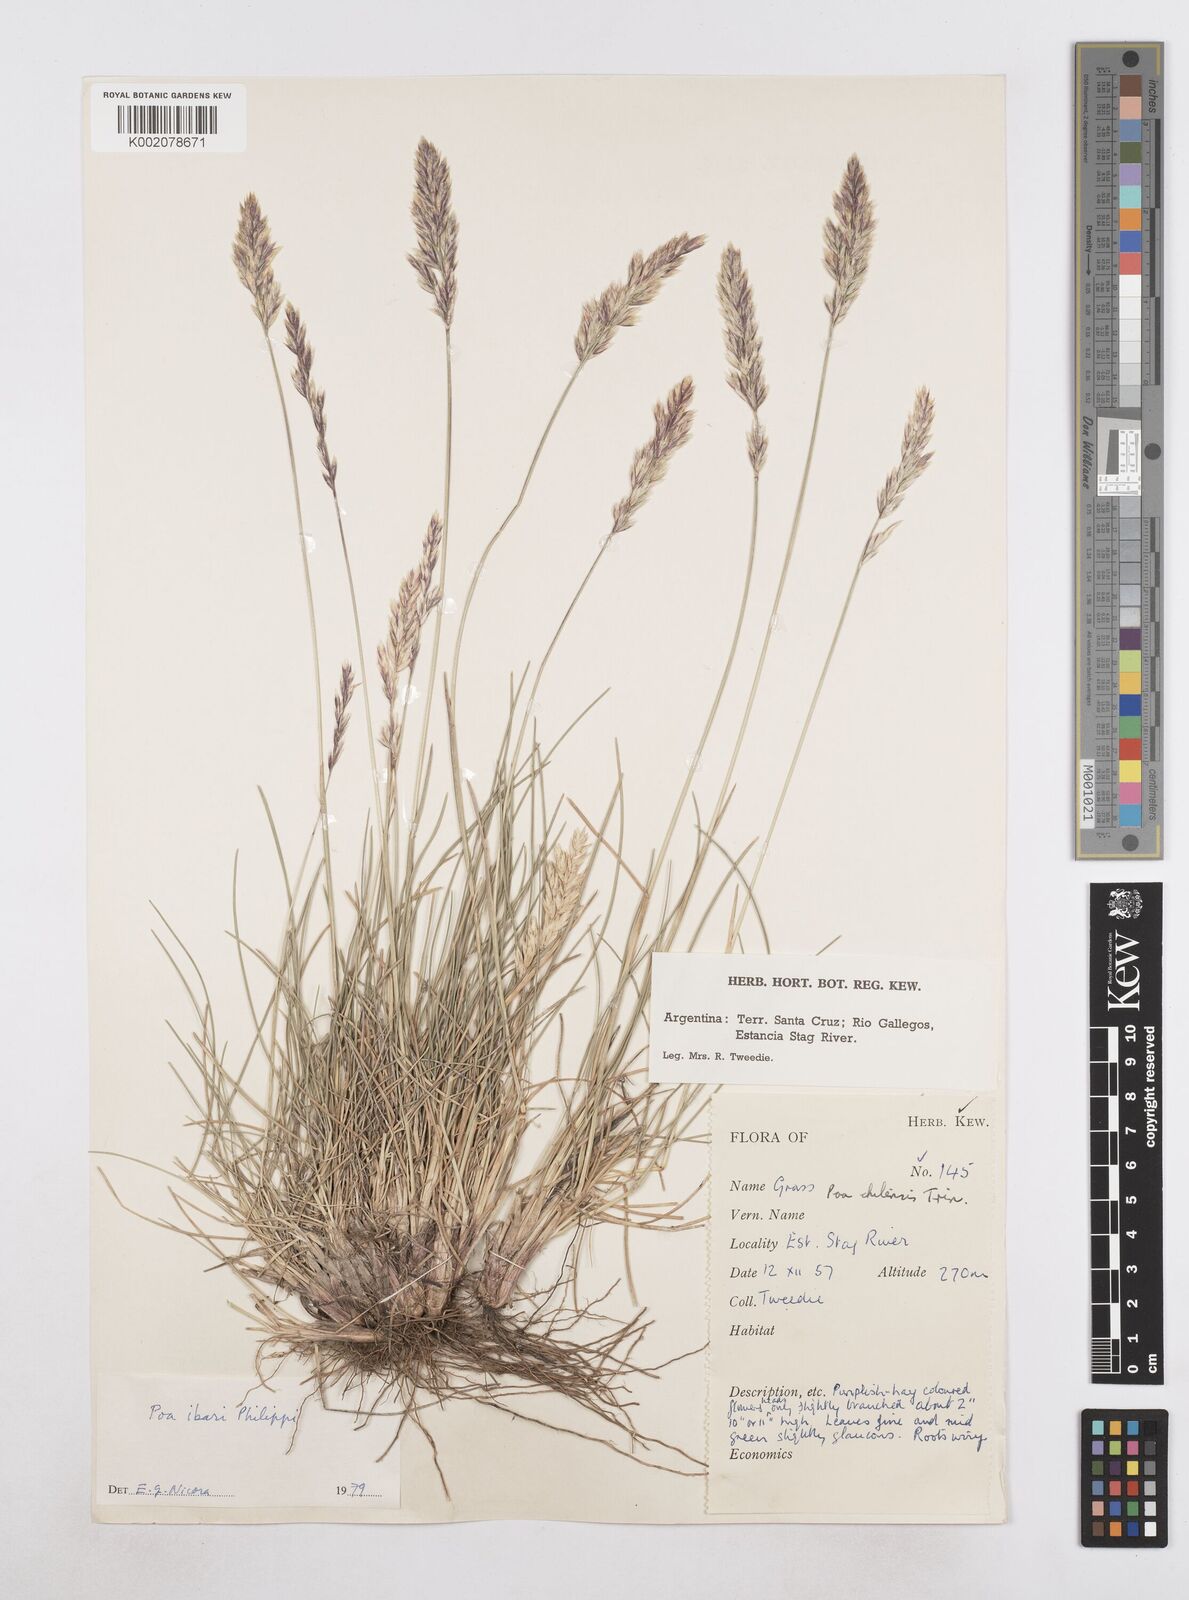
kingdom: Plantae
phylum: Tracheophyta
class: Liliopsida
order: Poales
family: Poaceae
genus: Poa
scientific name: Poa spiciformis
